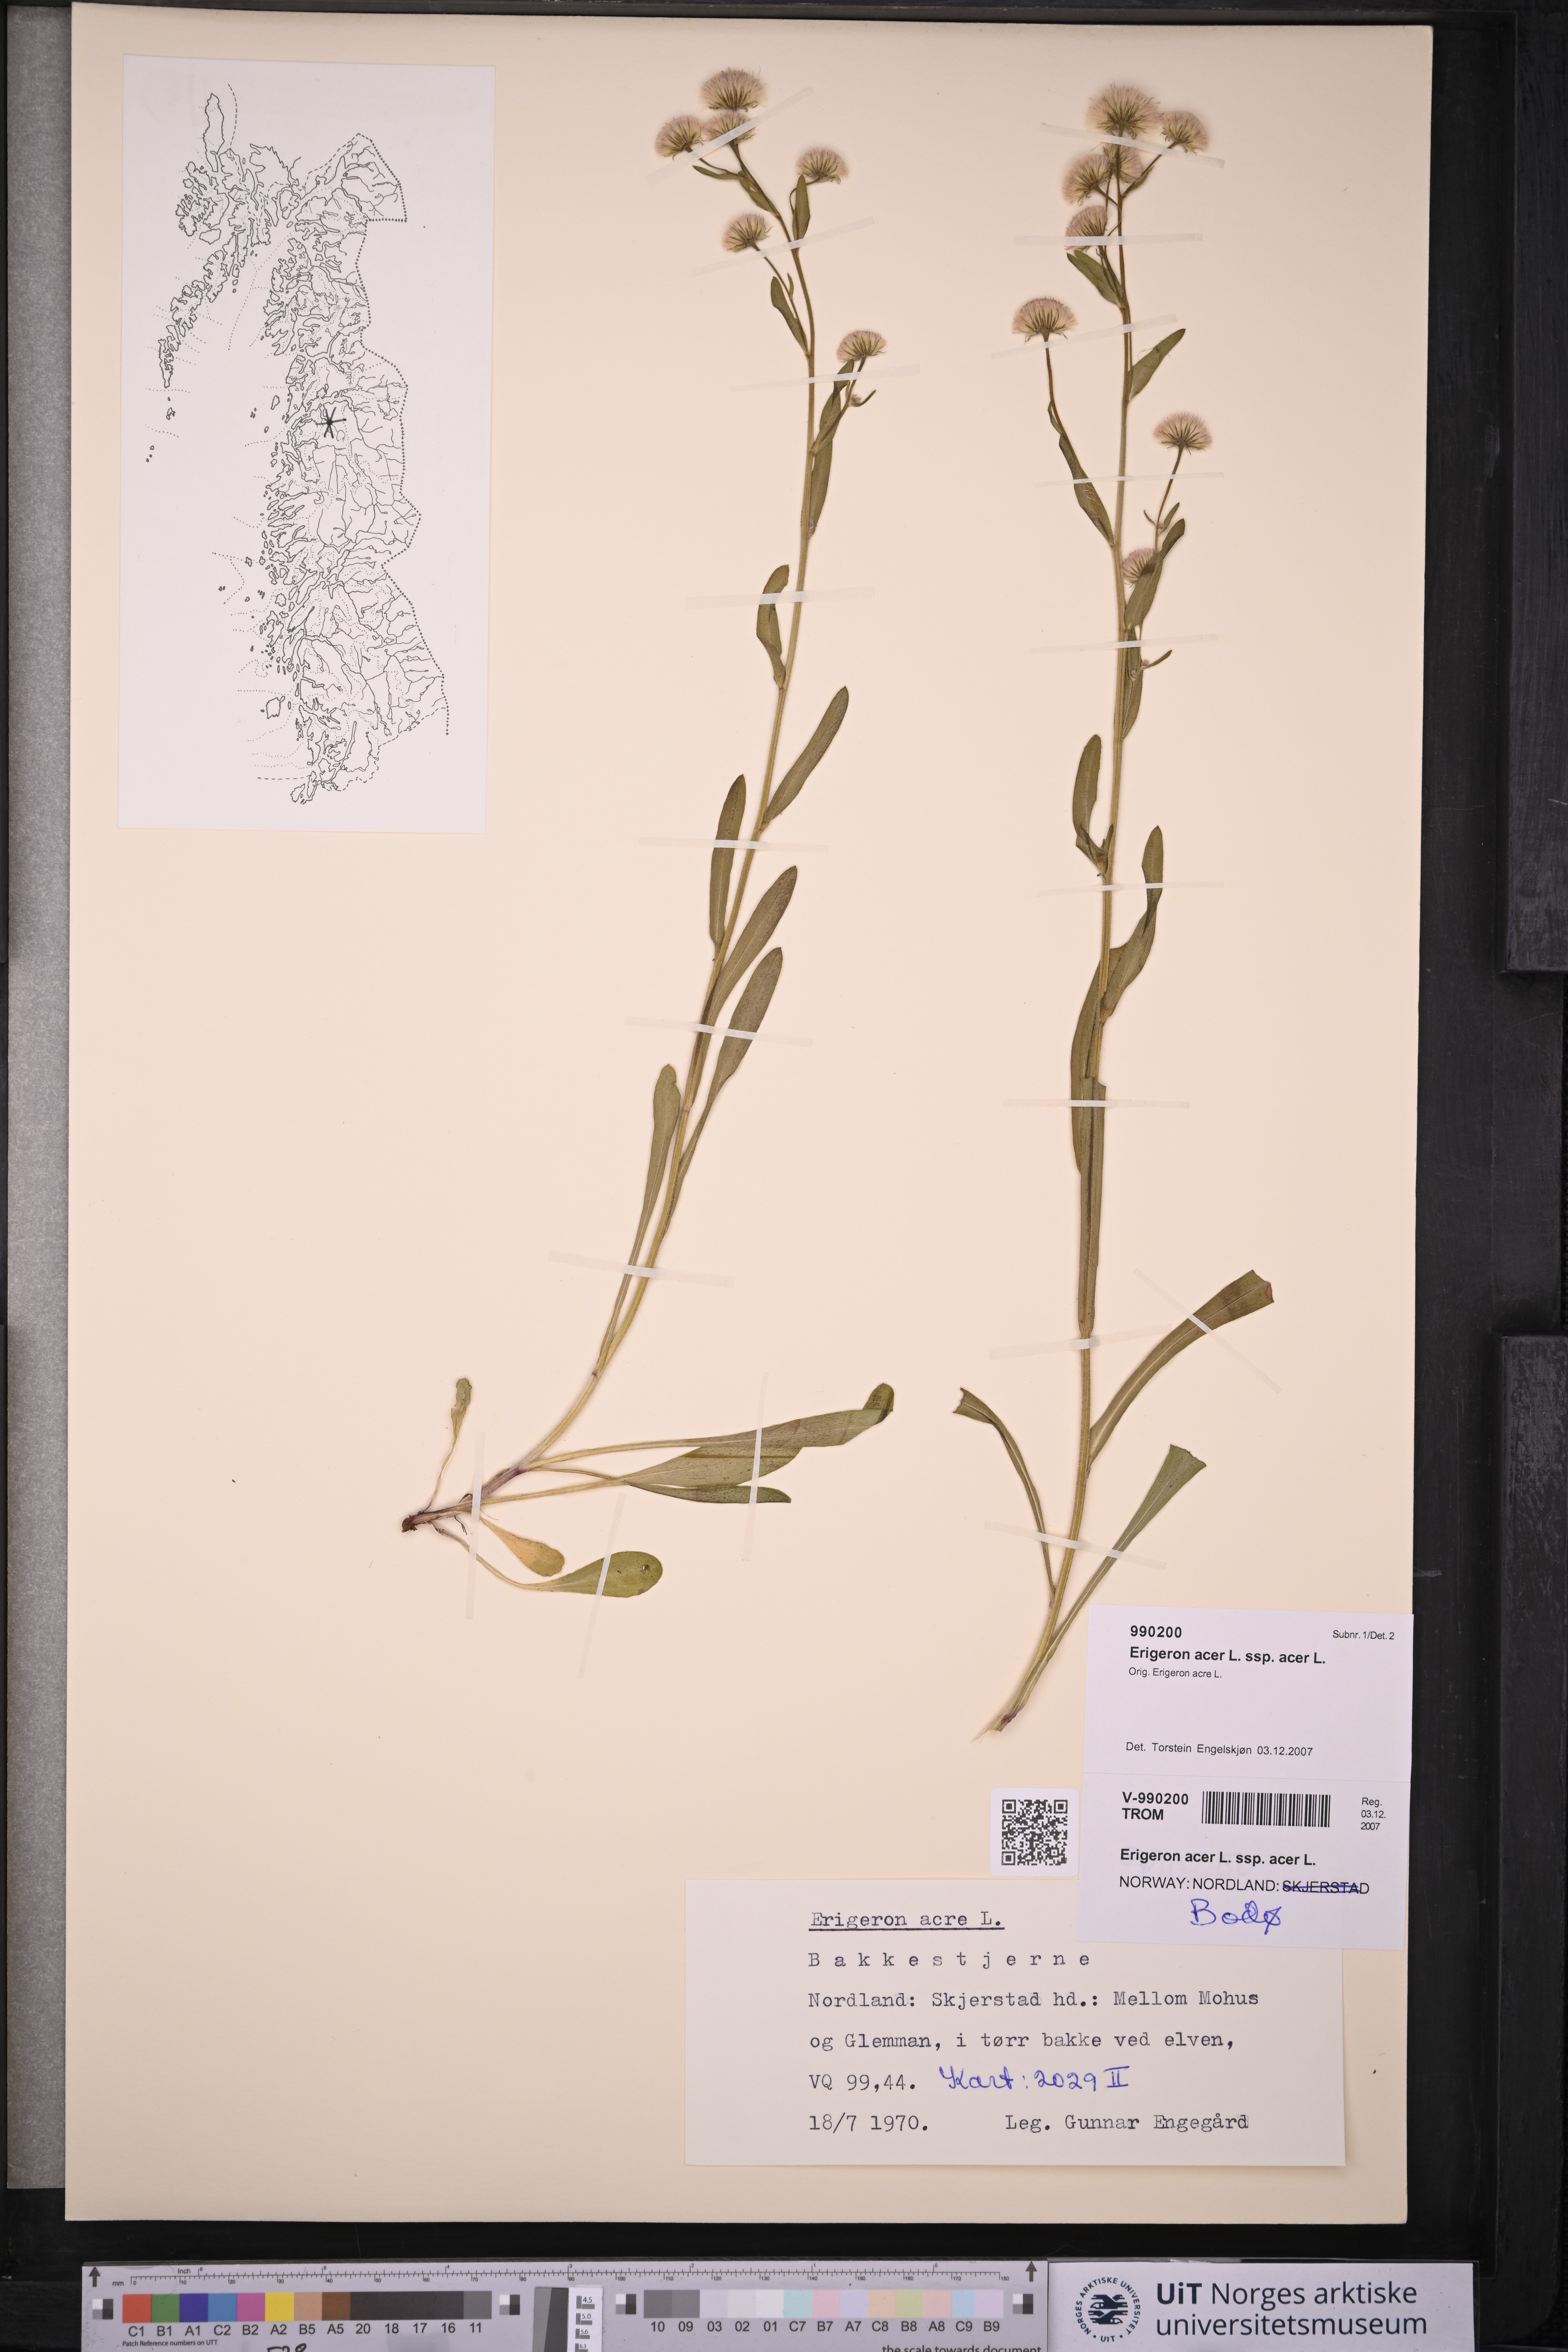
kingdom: Plantae
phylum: Tracheophyta
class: Magnoliopsida
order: Asterales
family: Asteraceae
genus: Erigeron
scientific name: Erigeron acris
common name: Blue fleabane
